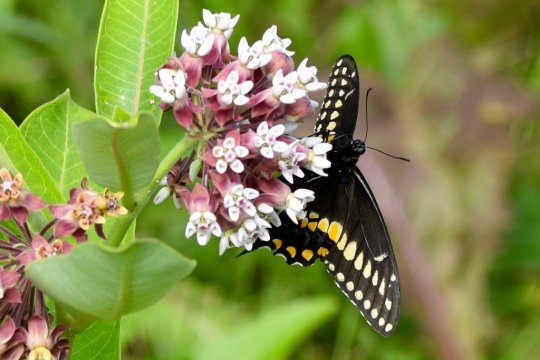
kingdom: Animalia
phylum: Arthropoda
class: Insecta
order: Lepidoptera
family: Papilionidae
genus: Papilio
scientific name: Papilio polyxenes
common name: Black Swallowtail
